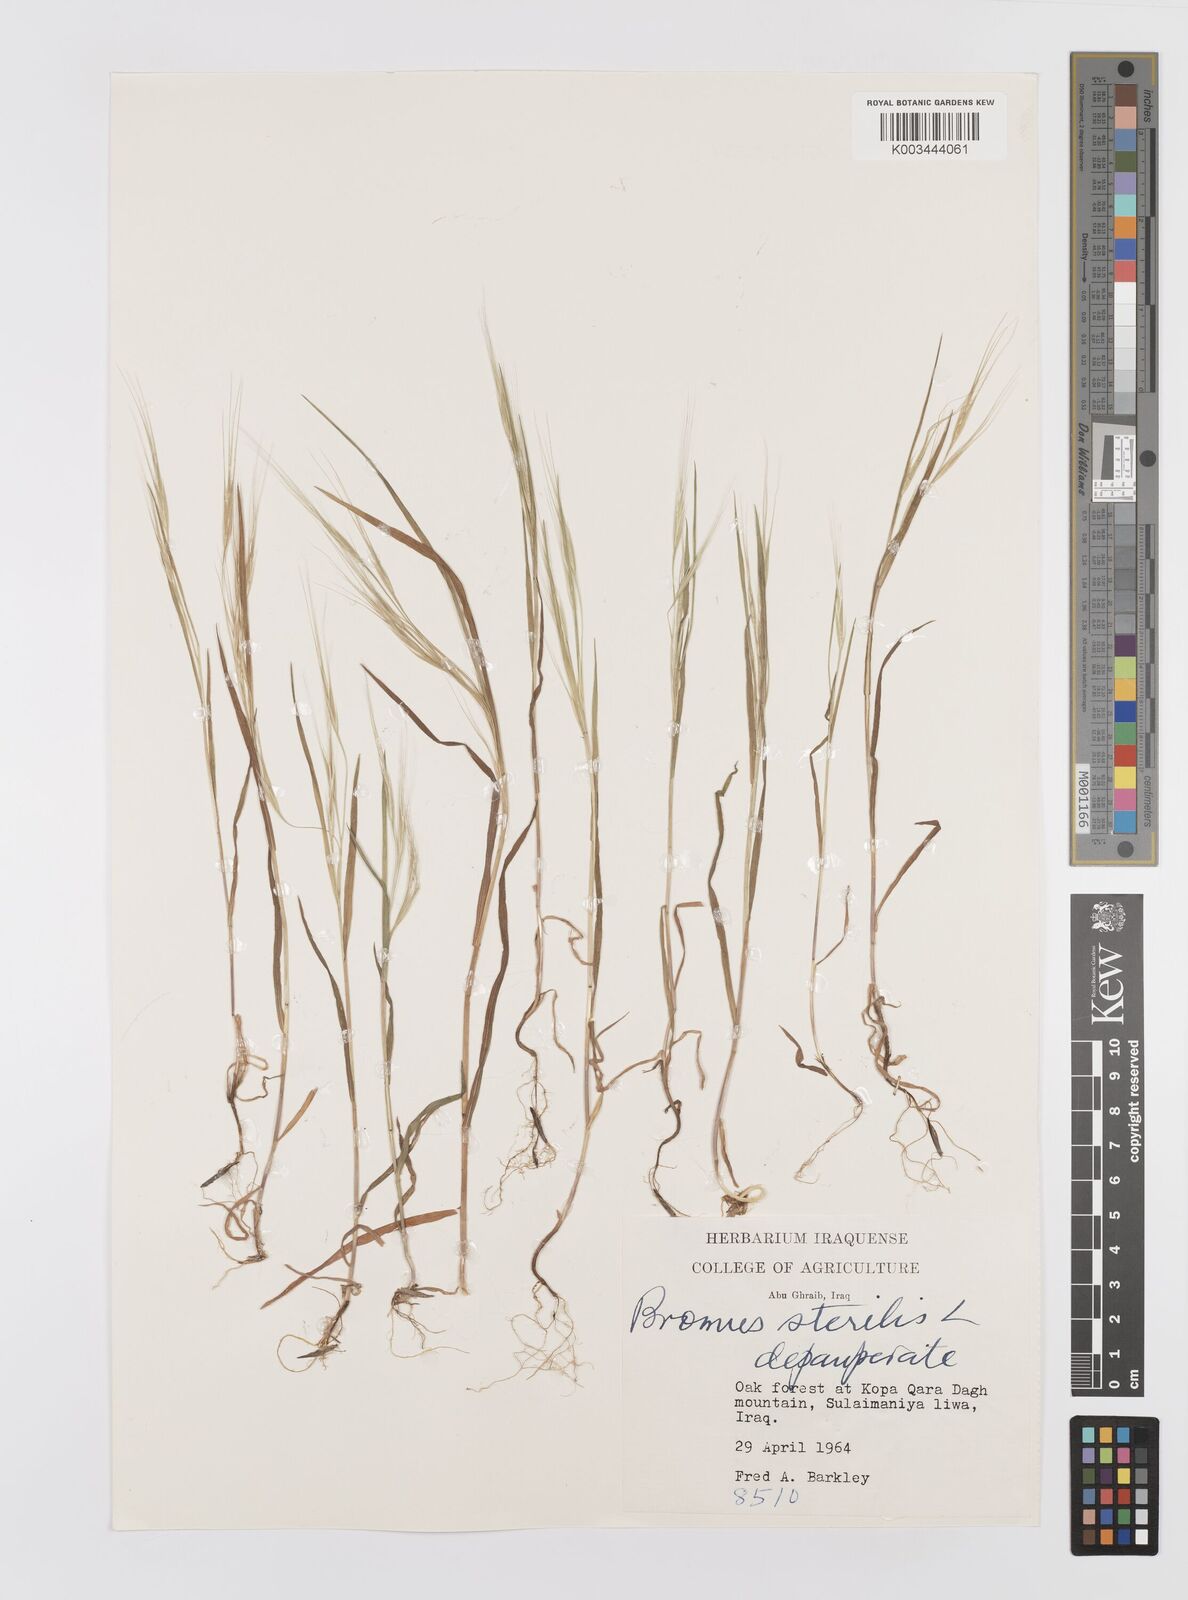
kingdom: Plantae
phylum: Tracheophyta
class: Liliopsida
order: Poales
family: Poaceae
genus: Bromus
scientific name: Bromus sterilis
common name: Poverty brome
